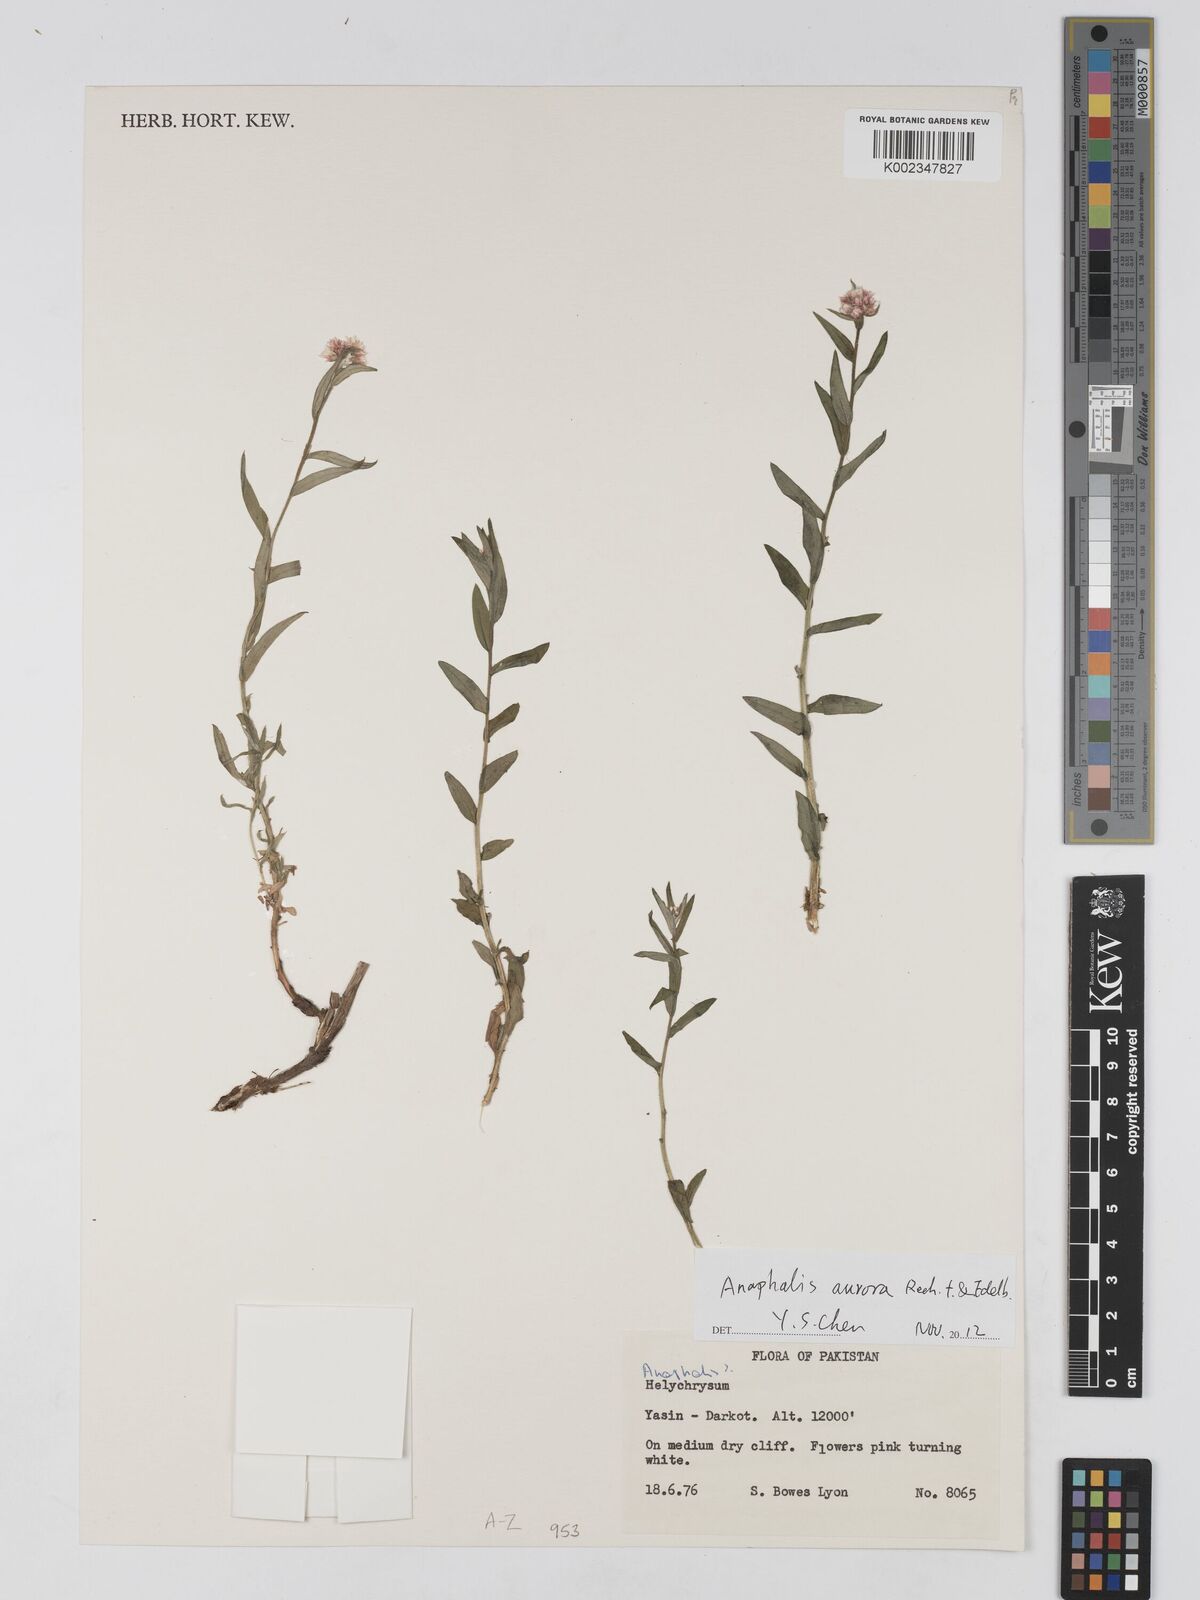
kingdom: Plantae
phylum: Tracheophyta
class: Magnoliopsida
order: Asterales
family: Asteraceae
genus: Anaphalis
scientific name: Anaphalis roseoalba
